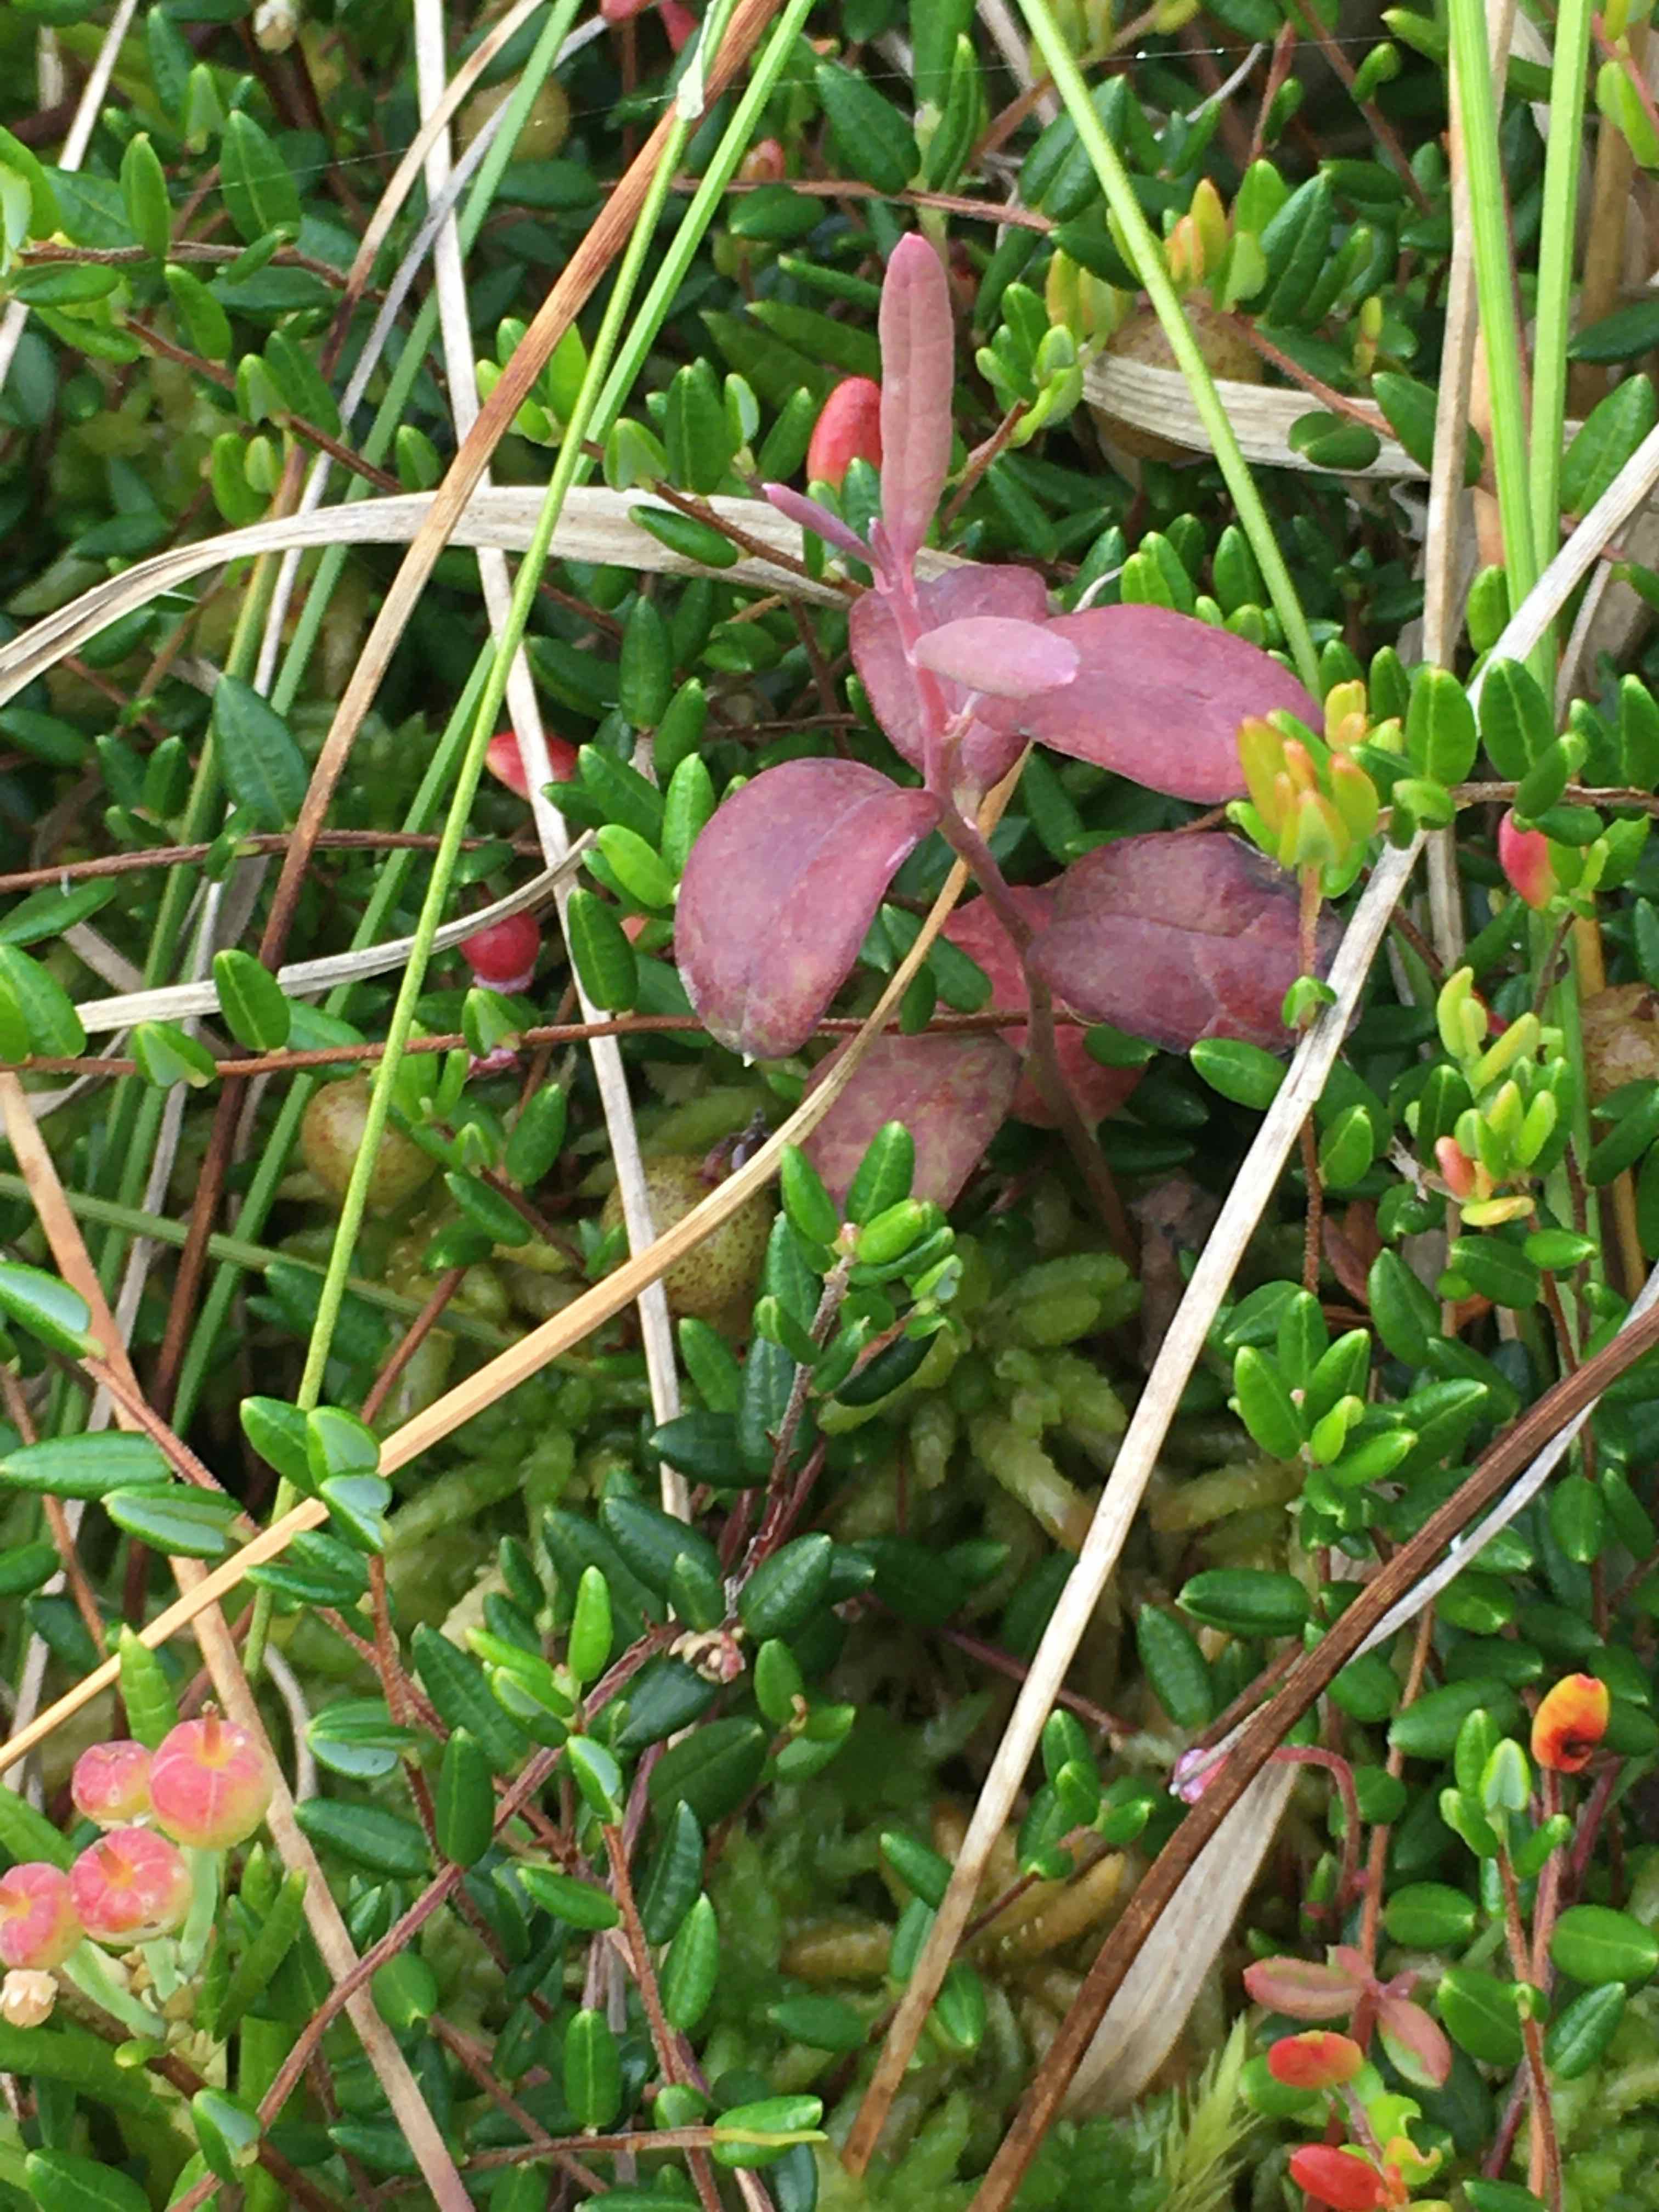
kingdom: Fungi
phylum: Basidiomycota
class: Exobasidiomycetes
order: Exobasidiales
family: Exobasidiaceae
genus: Exobasidium
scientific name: Exobasidium karstenii
